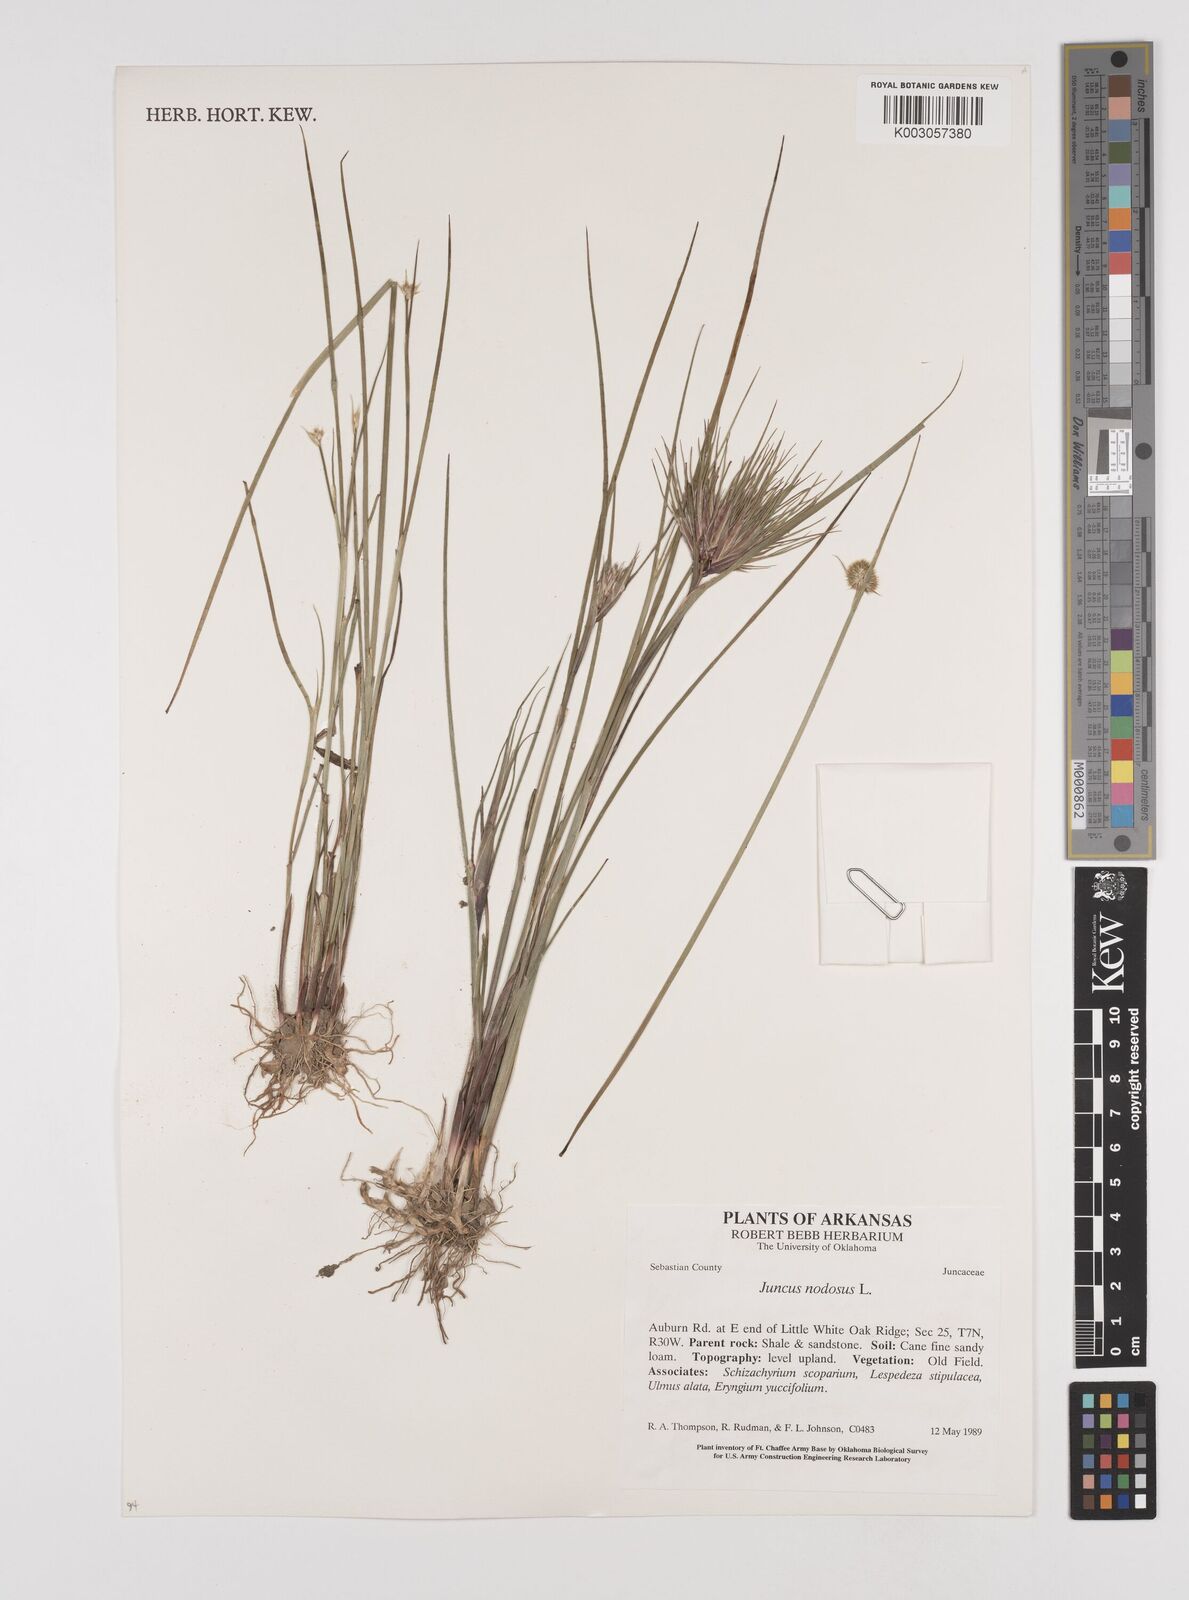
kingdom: Plantae
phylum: Tracheophyta
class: Liliopsida
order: Poales
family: Juncaceae
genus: Juncus
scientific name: Juncus nodosus
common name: Knotted rush
